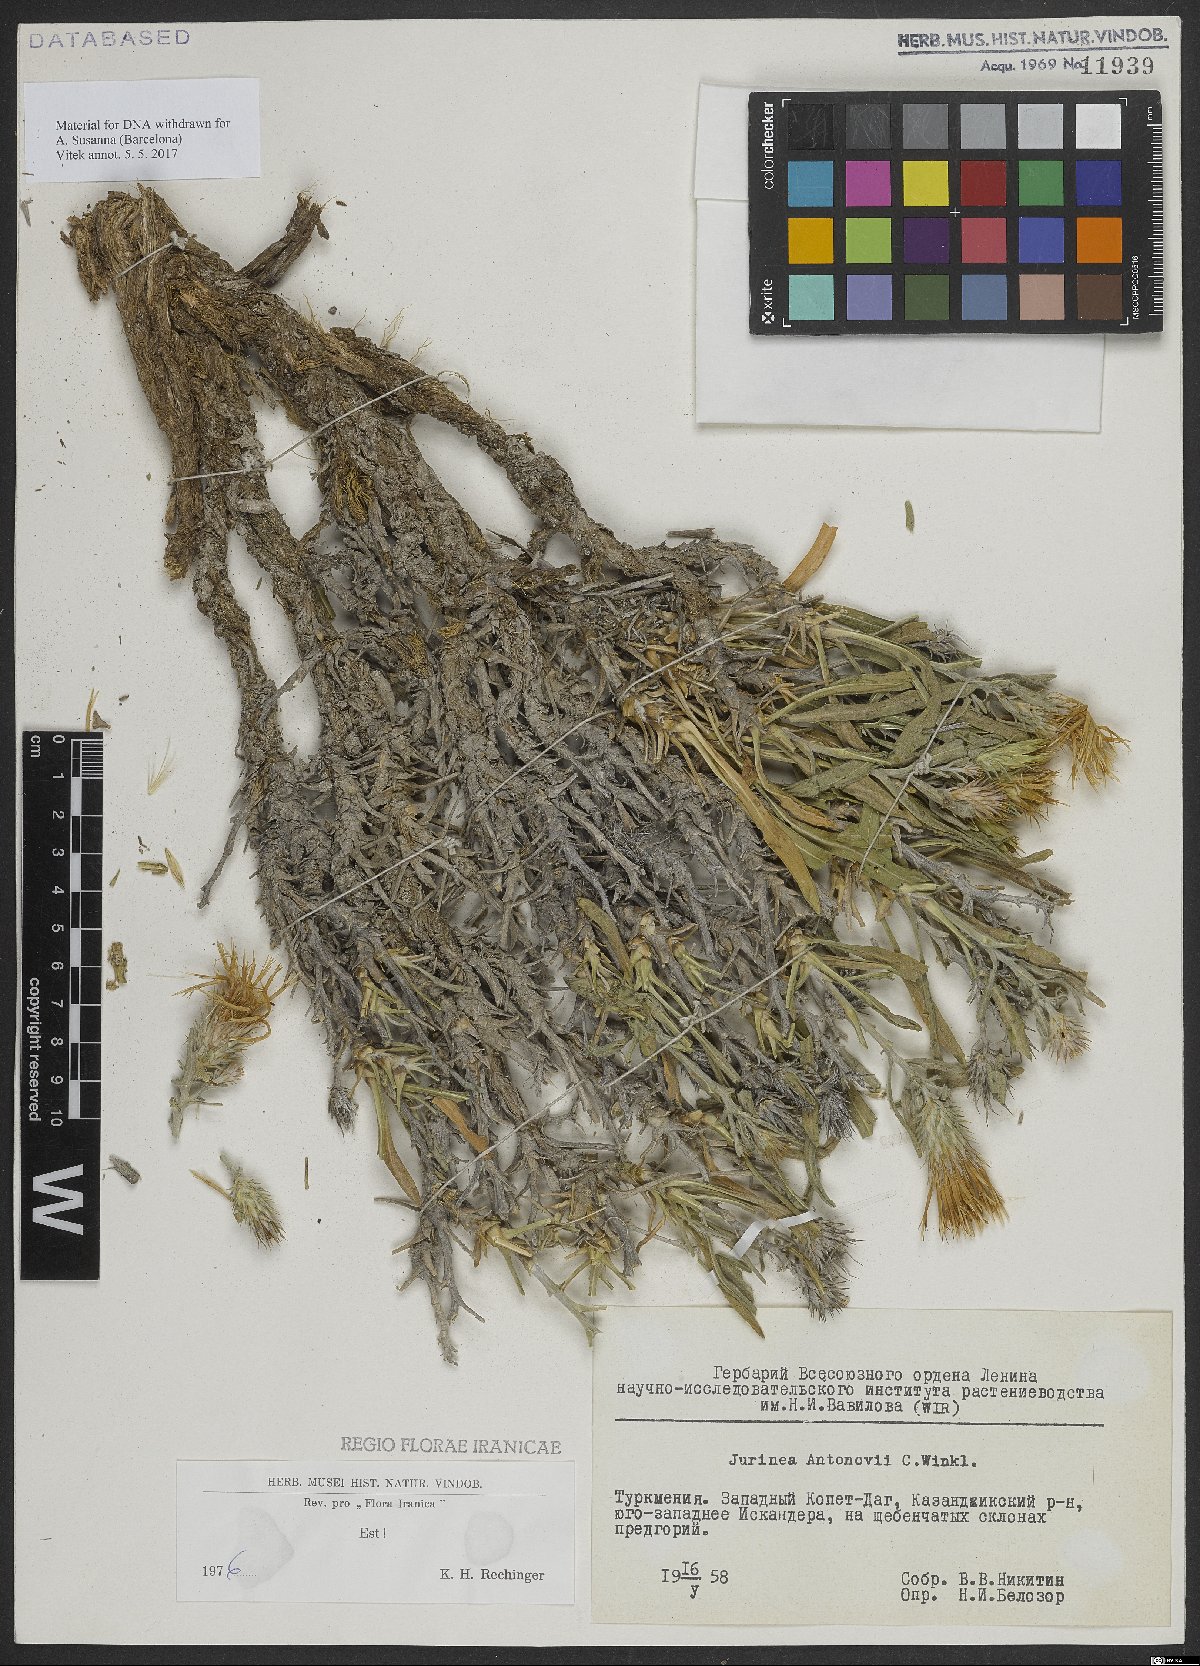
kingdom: Plantae
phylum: Tracheophyta
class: Magnoliopsida
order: Asterales
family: Asteraceae
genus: Jurinea
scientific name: Jurinea antonowi
